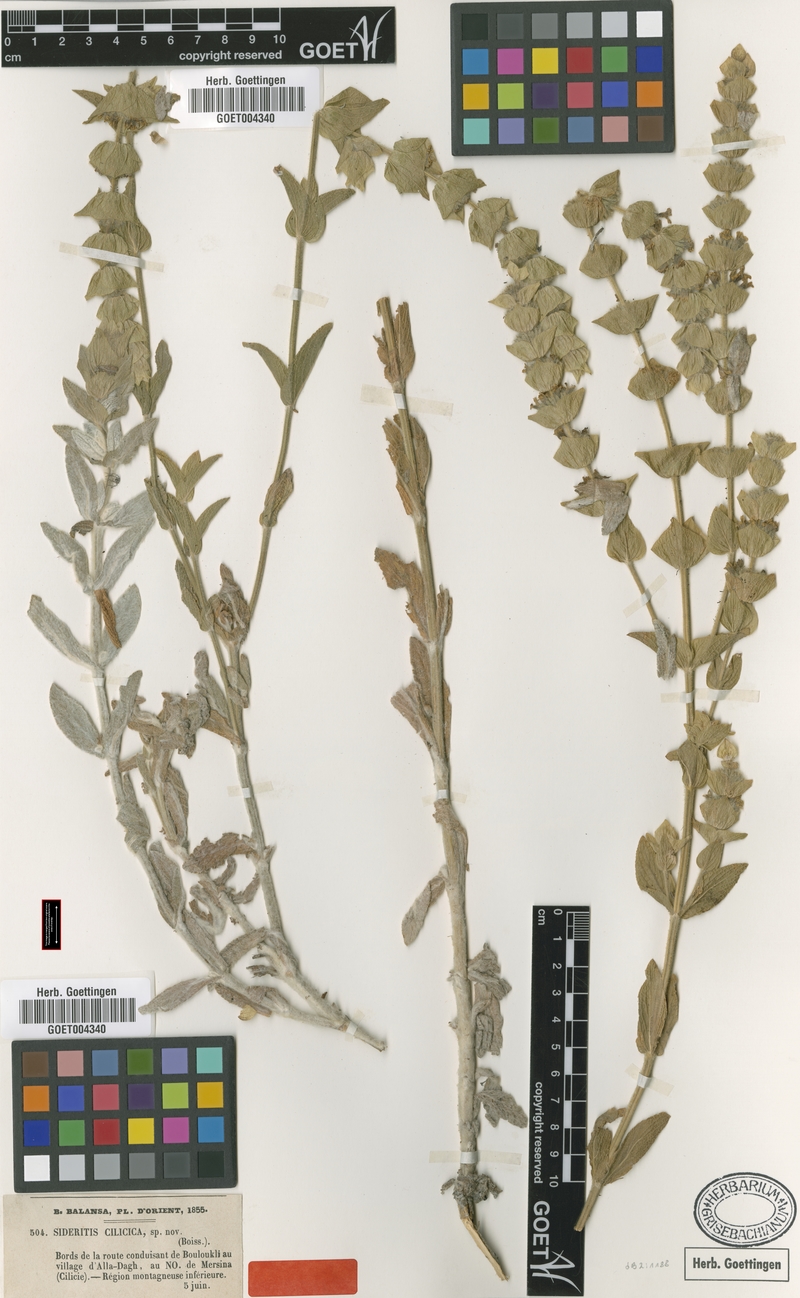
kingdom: Plantae
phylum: Tracheophyta
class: Magnoliopsida
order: Lamiales
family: Lamiaceae
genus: Sideritis
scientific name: Sideritis cilicica
